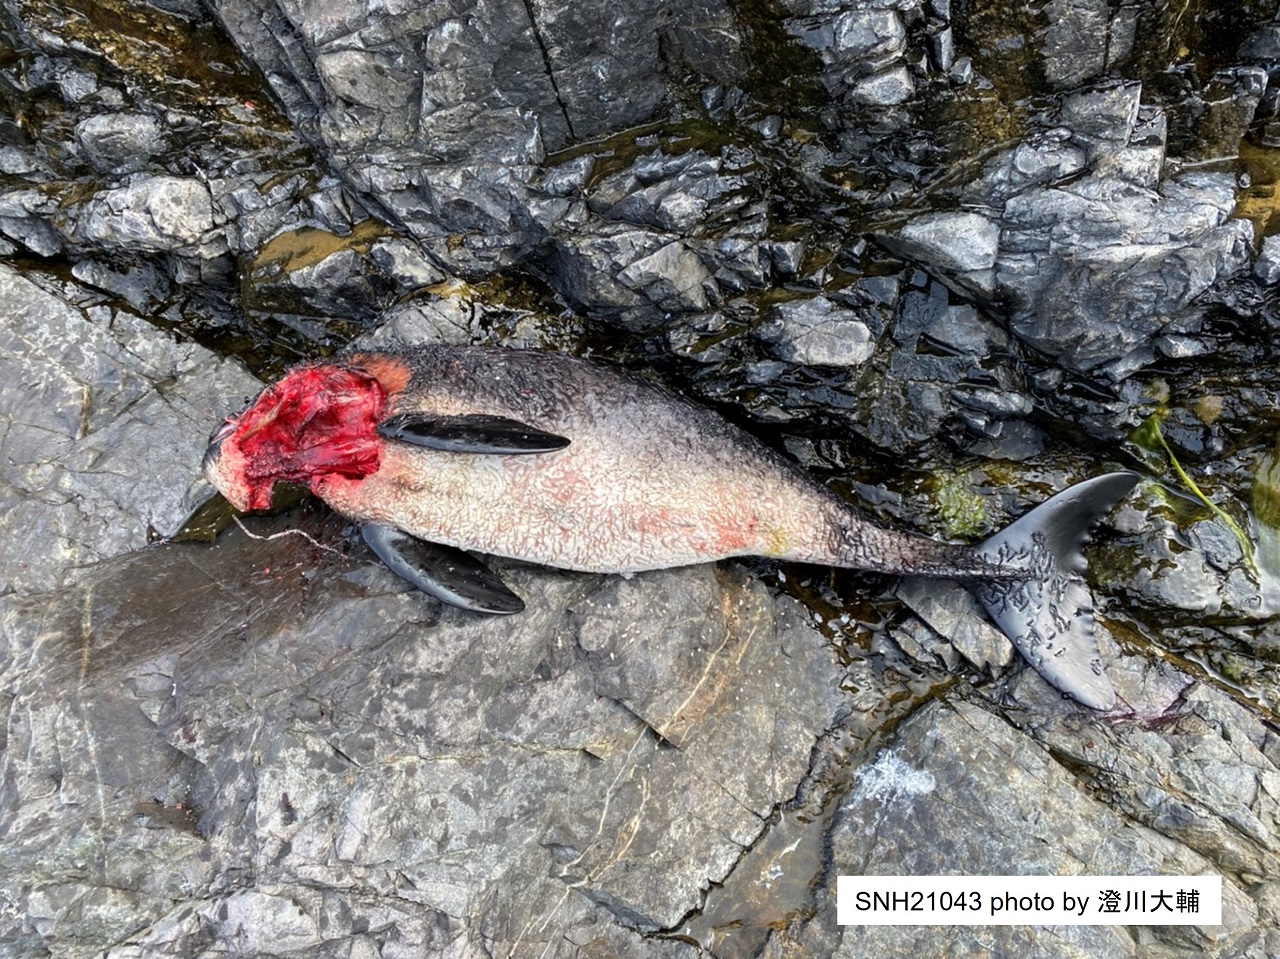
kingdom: Animalia
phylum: Chordata
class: Mammalia
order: Cetacea
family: Phocoenidae
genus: Phocoena
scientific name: Phocoena phocoena
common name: Harbour porpoise
